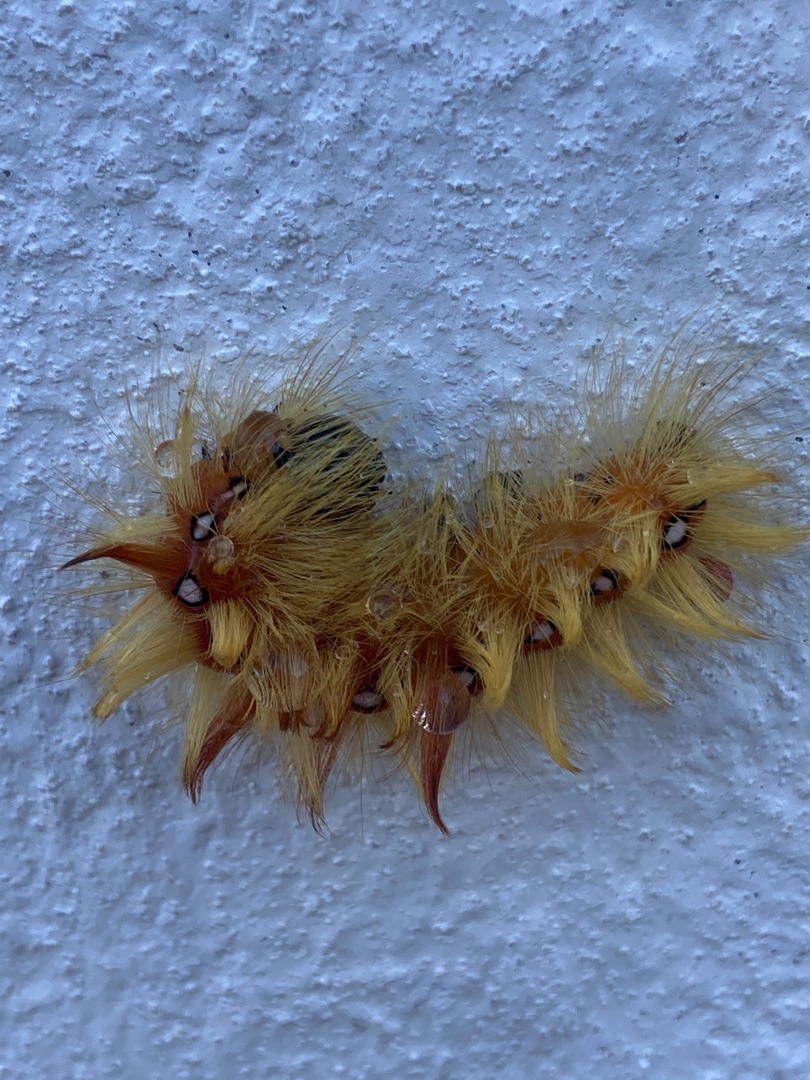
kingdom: Animalia
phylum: Arthropoda
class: Insecta
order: Lepidoptera
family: Noctuidae
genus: Acronicta
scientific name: Acronicta aceris
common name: Ahornugle
